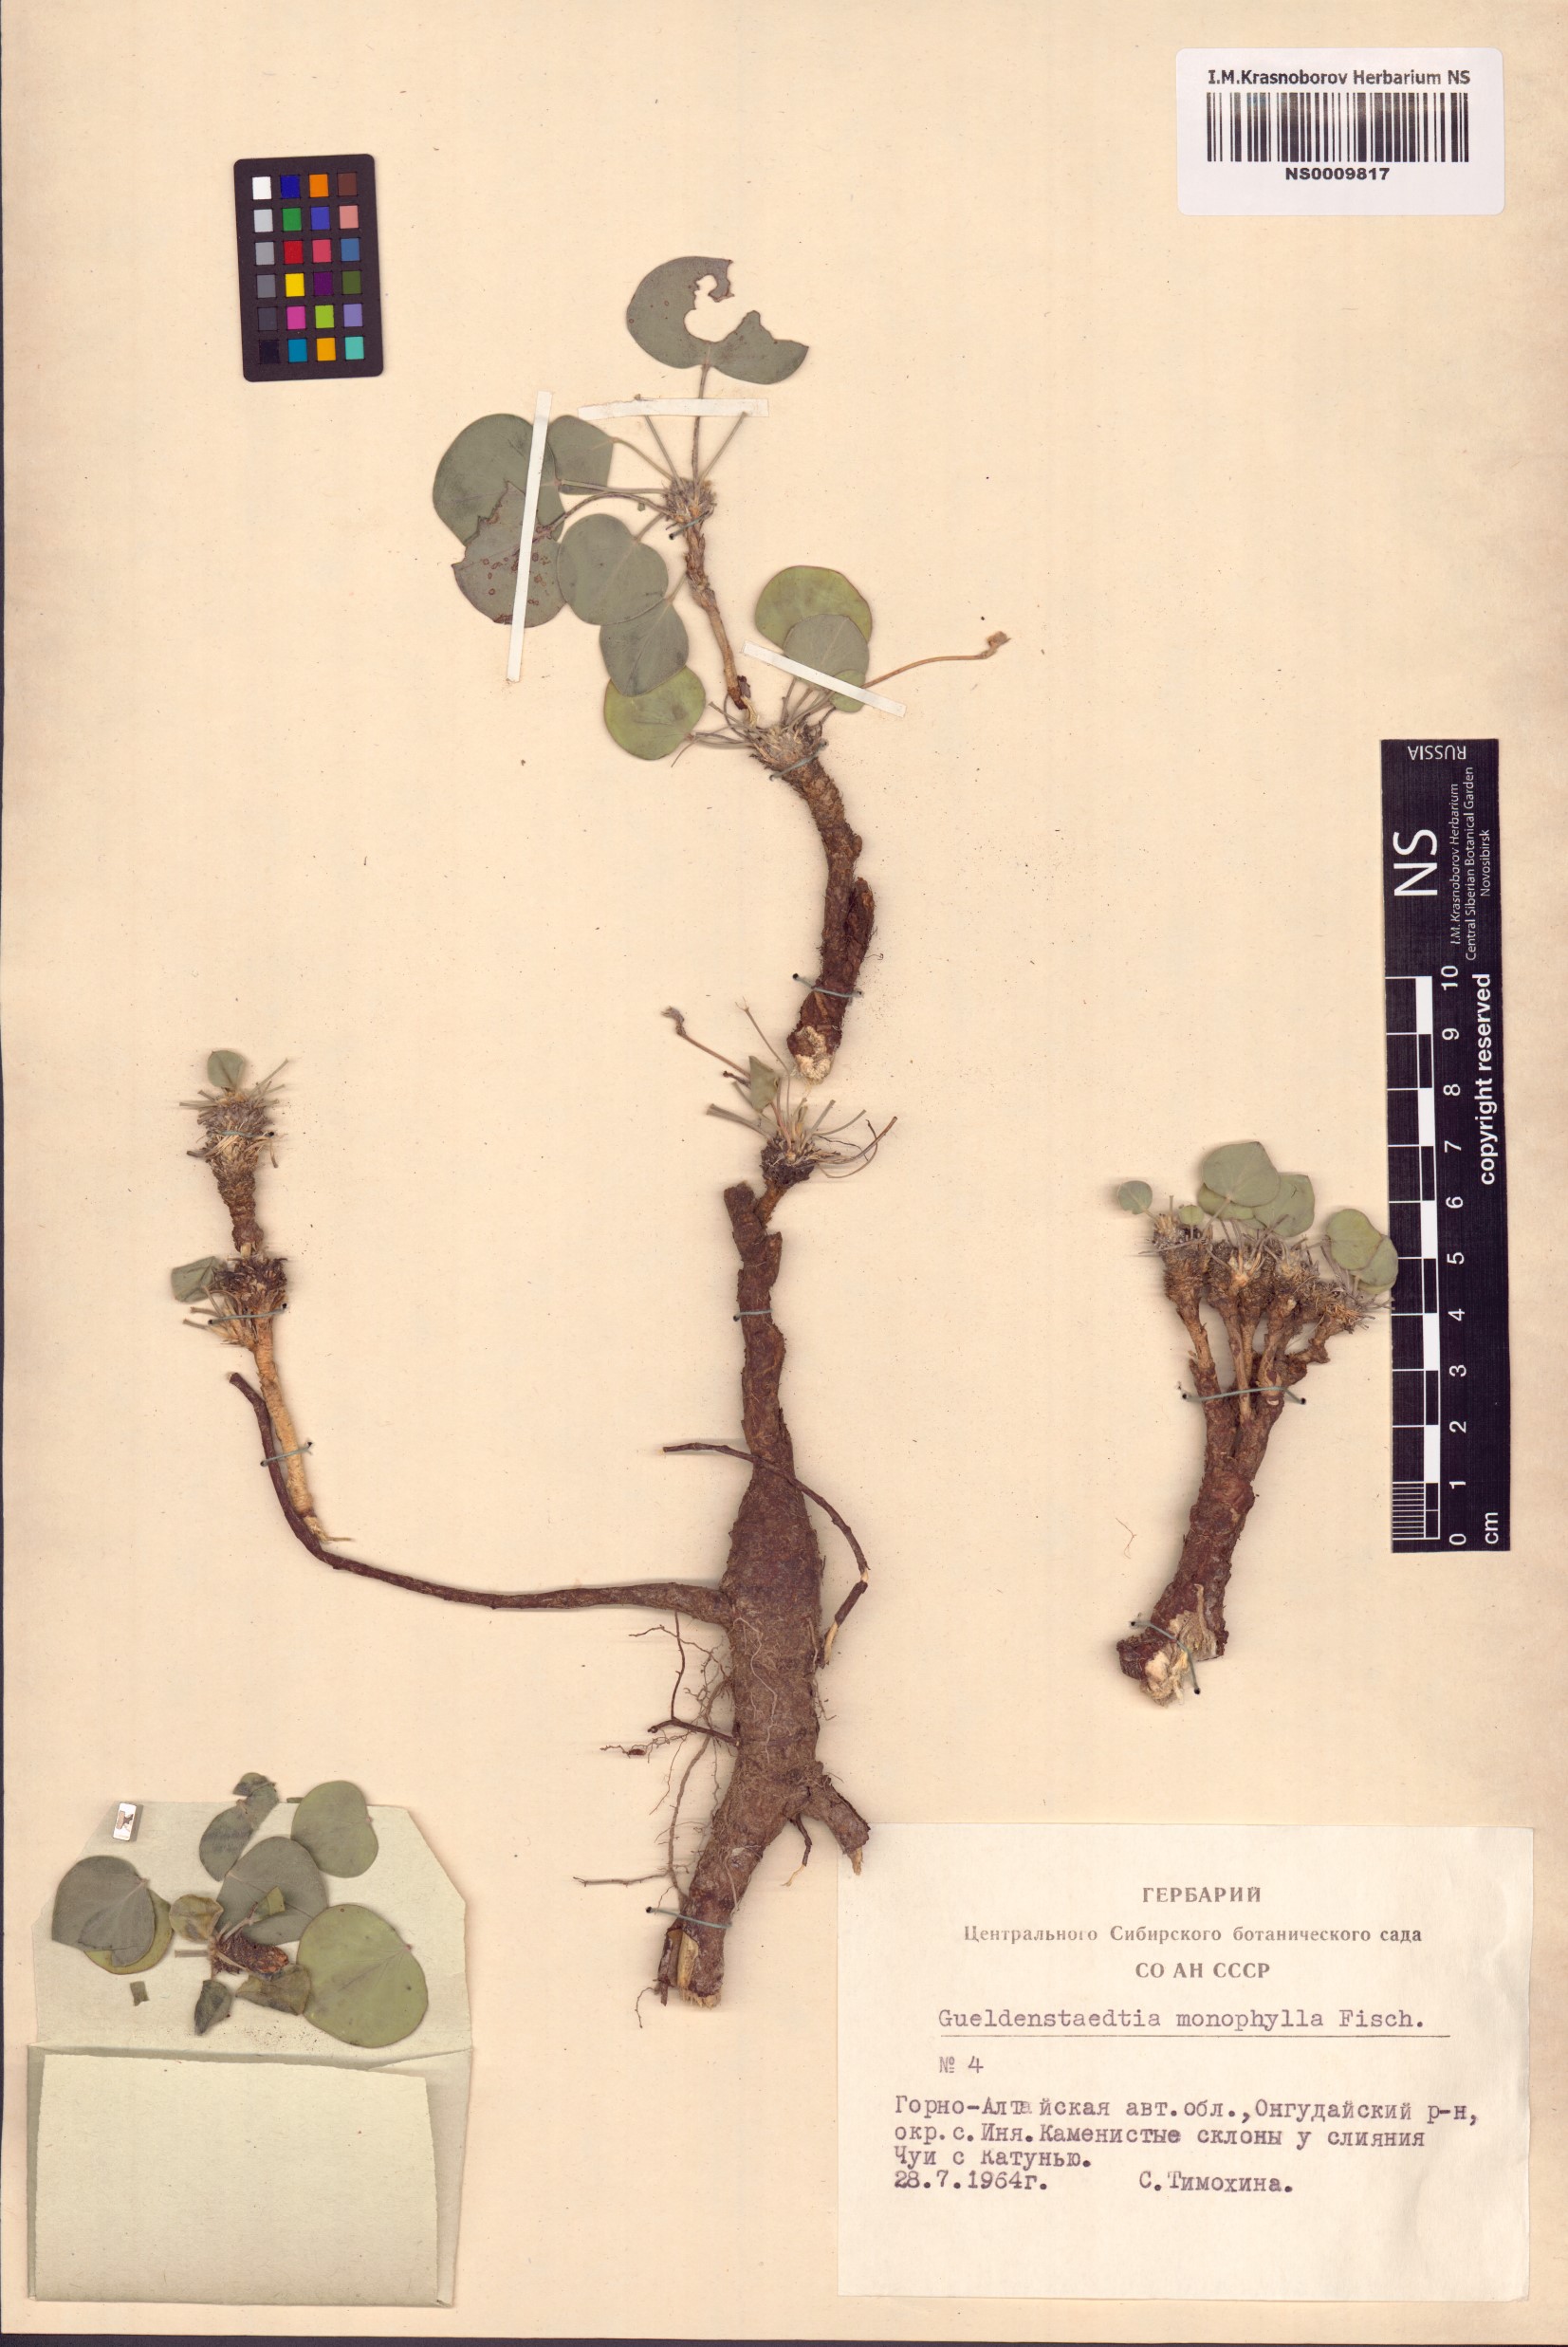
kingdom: Plantae
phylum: Tracheophyta
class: Magnoliopsida
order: Fabales
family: Fabaceae
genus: Gueldenstaedtia
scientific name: Gueldenstaedtia monophylla
